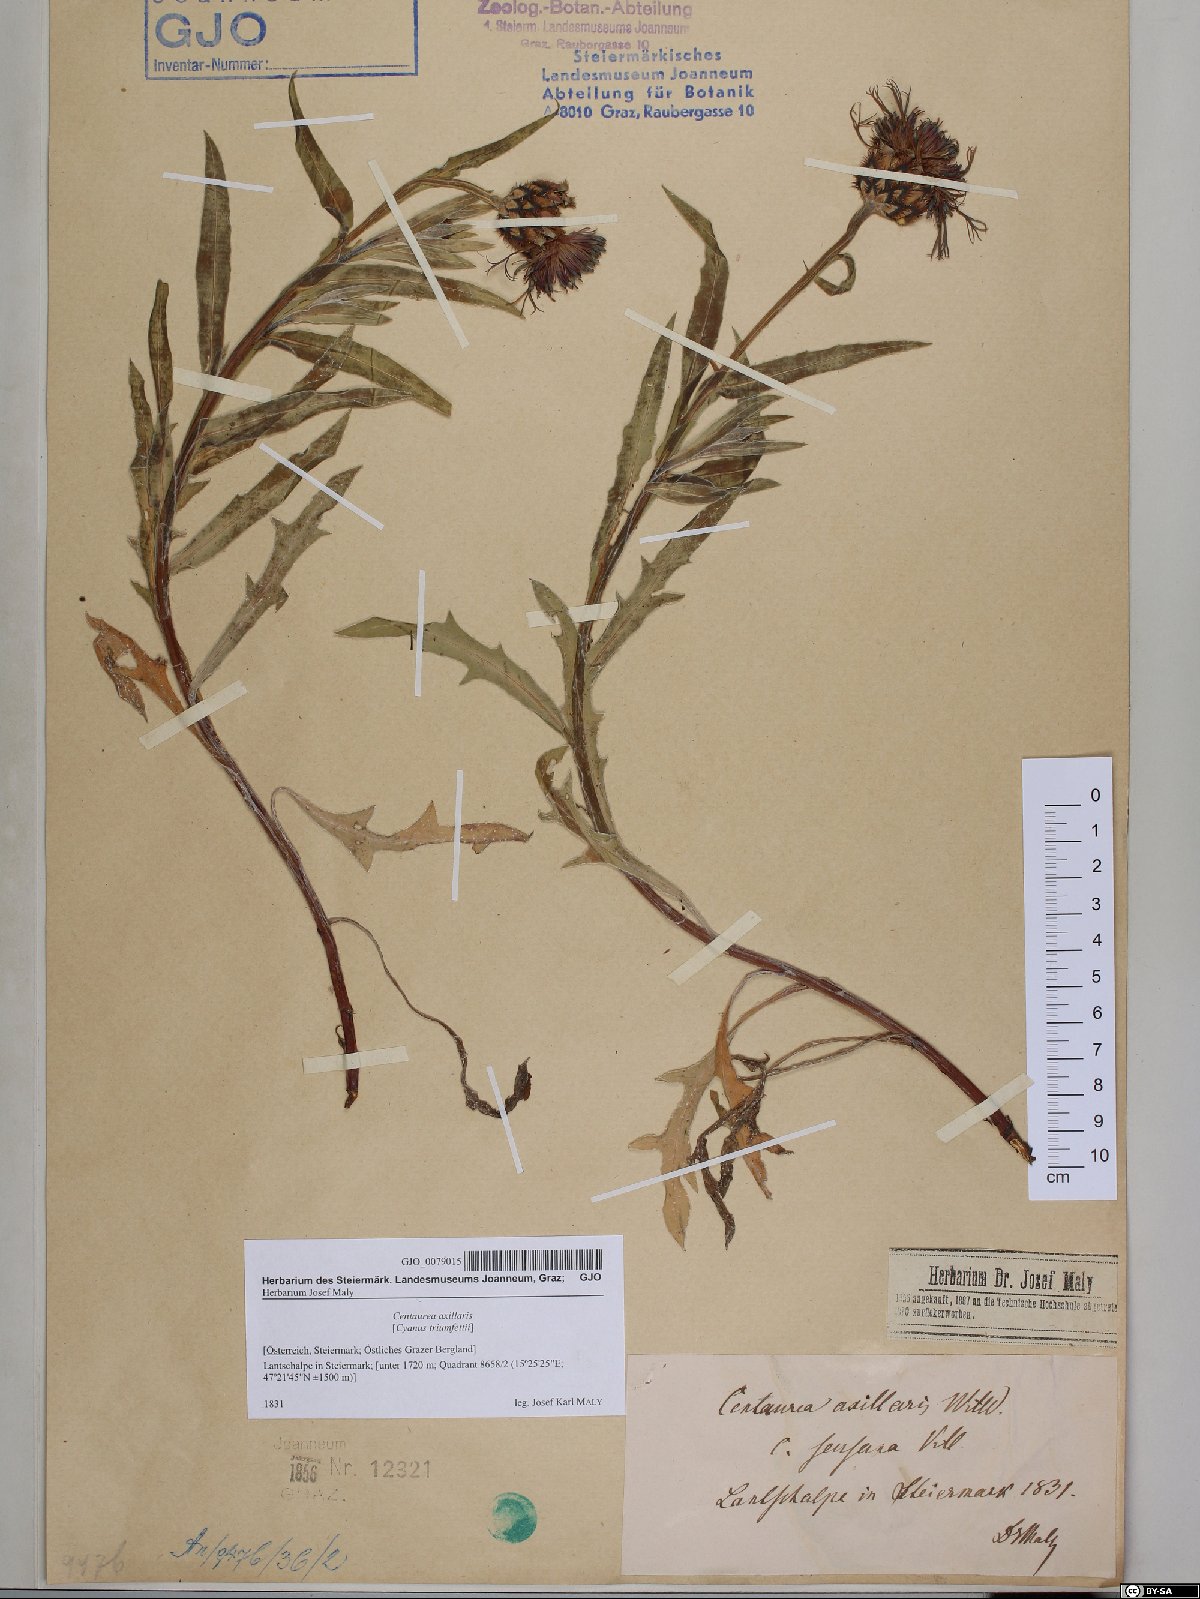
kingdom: Plantae
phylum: Tracheophyta
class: Magnoliopsida
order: Asterales
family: Asteraceae
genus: Centaurea
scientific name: Centaurea triumfettii
